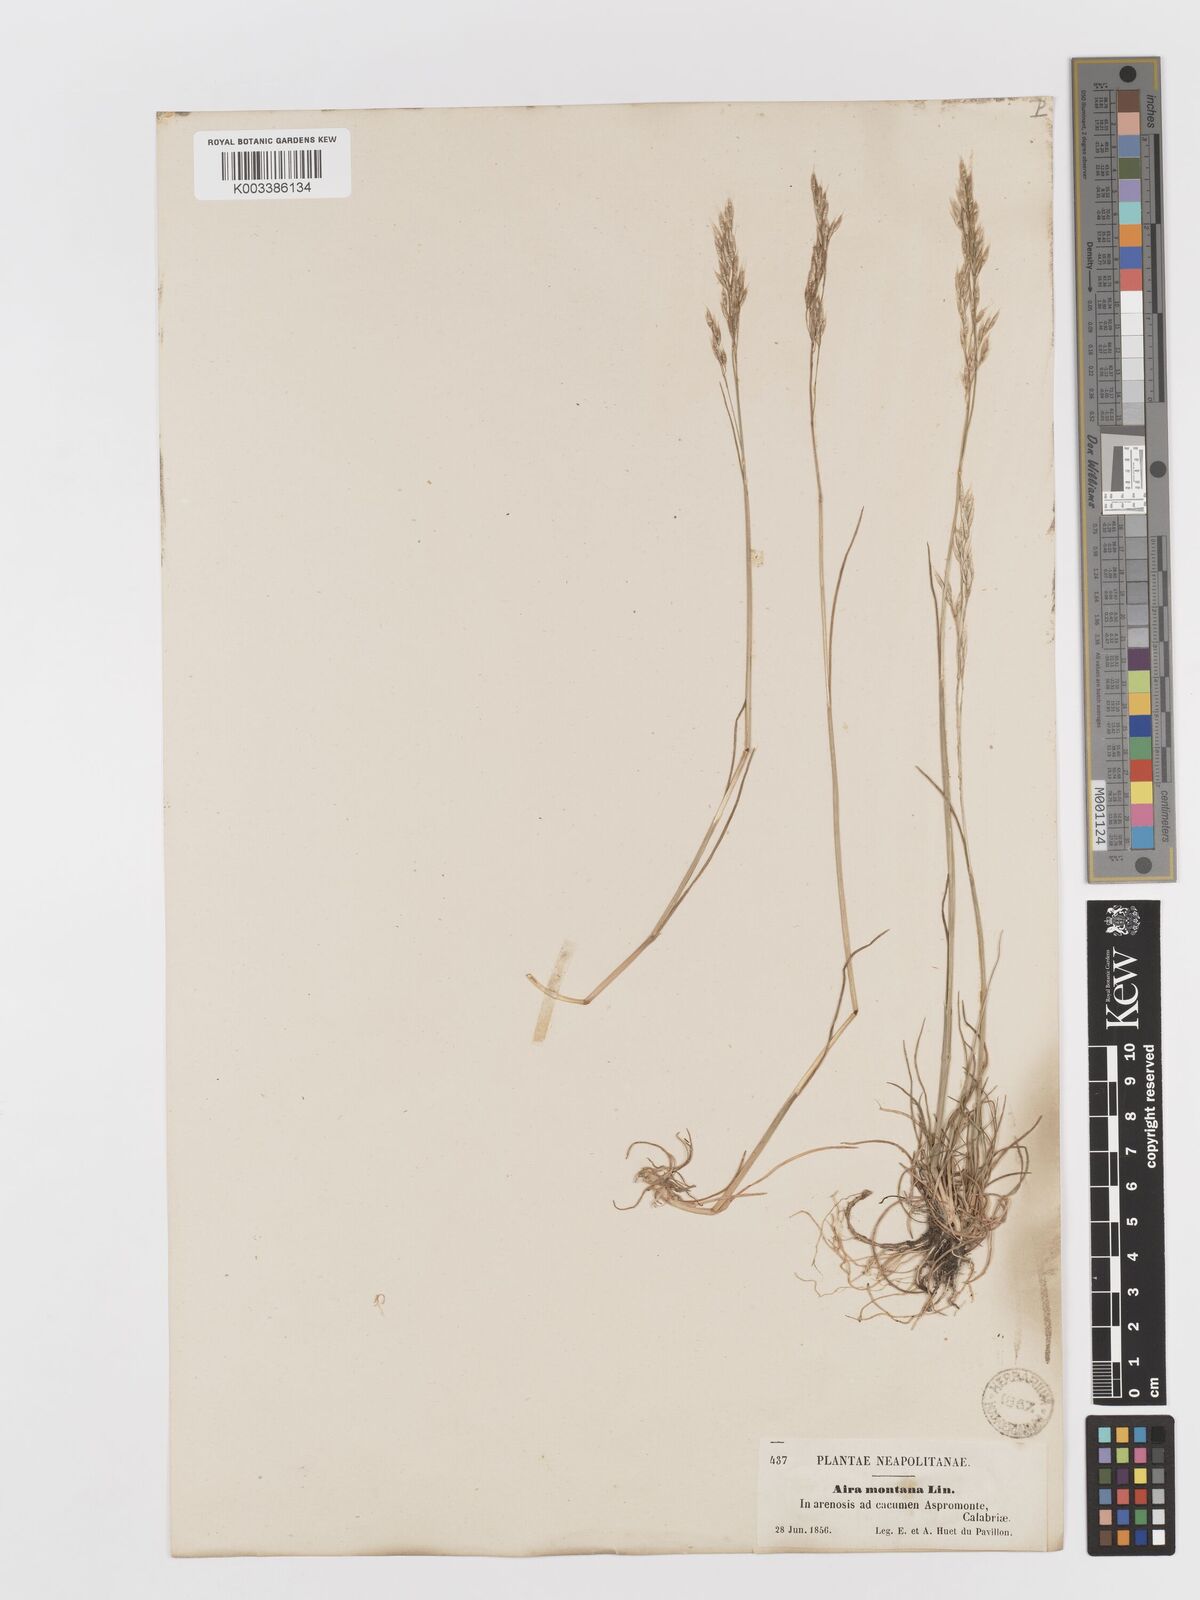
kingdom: Plantae
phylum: Tracheophyta
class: Liliopsida
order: Poales
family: Poaceae
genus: Avenella
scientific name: Avenella flexuosa
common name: Wavy hairgrass
